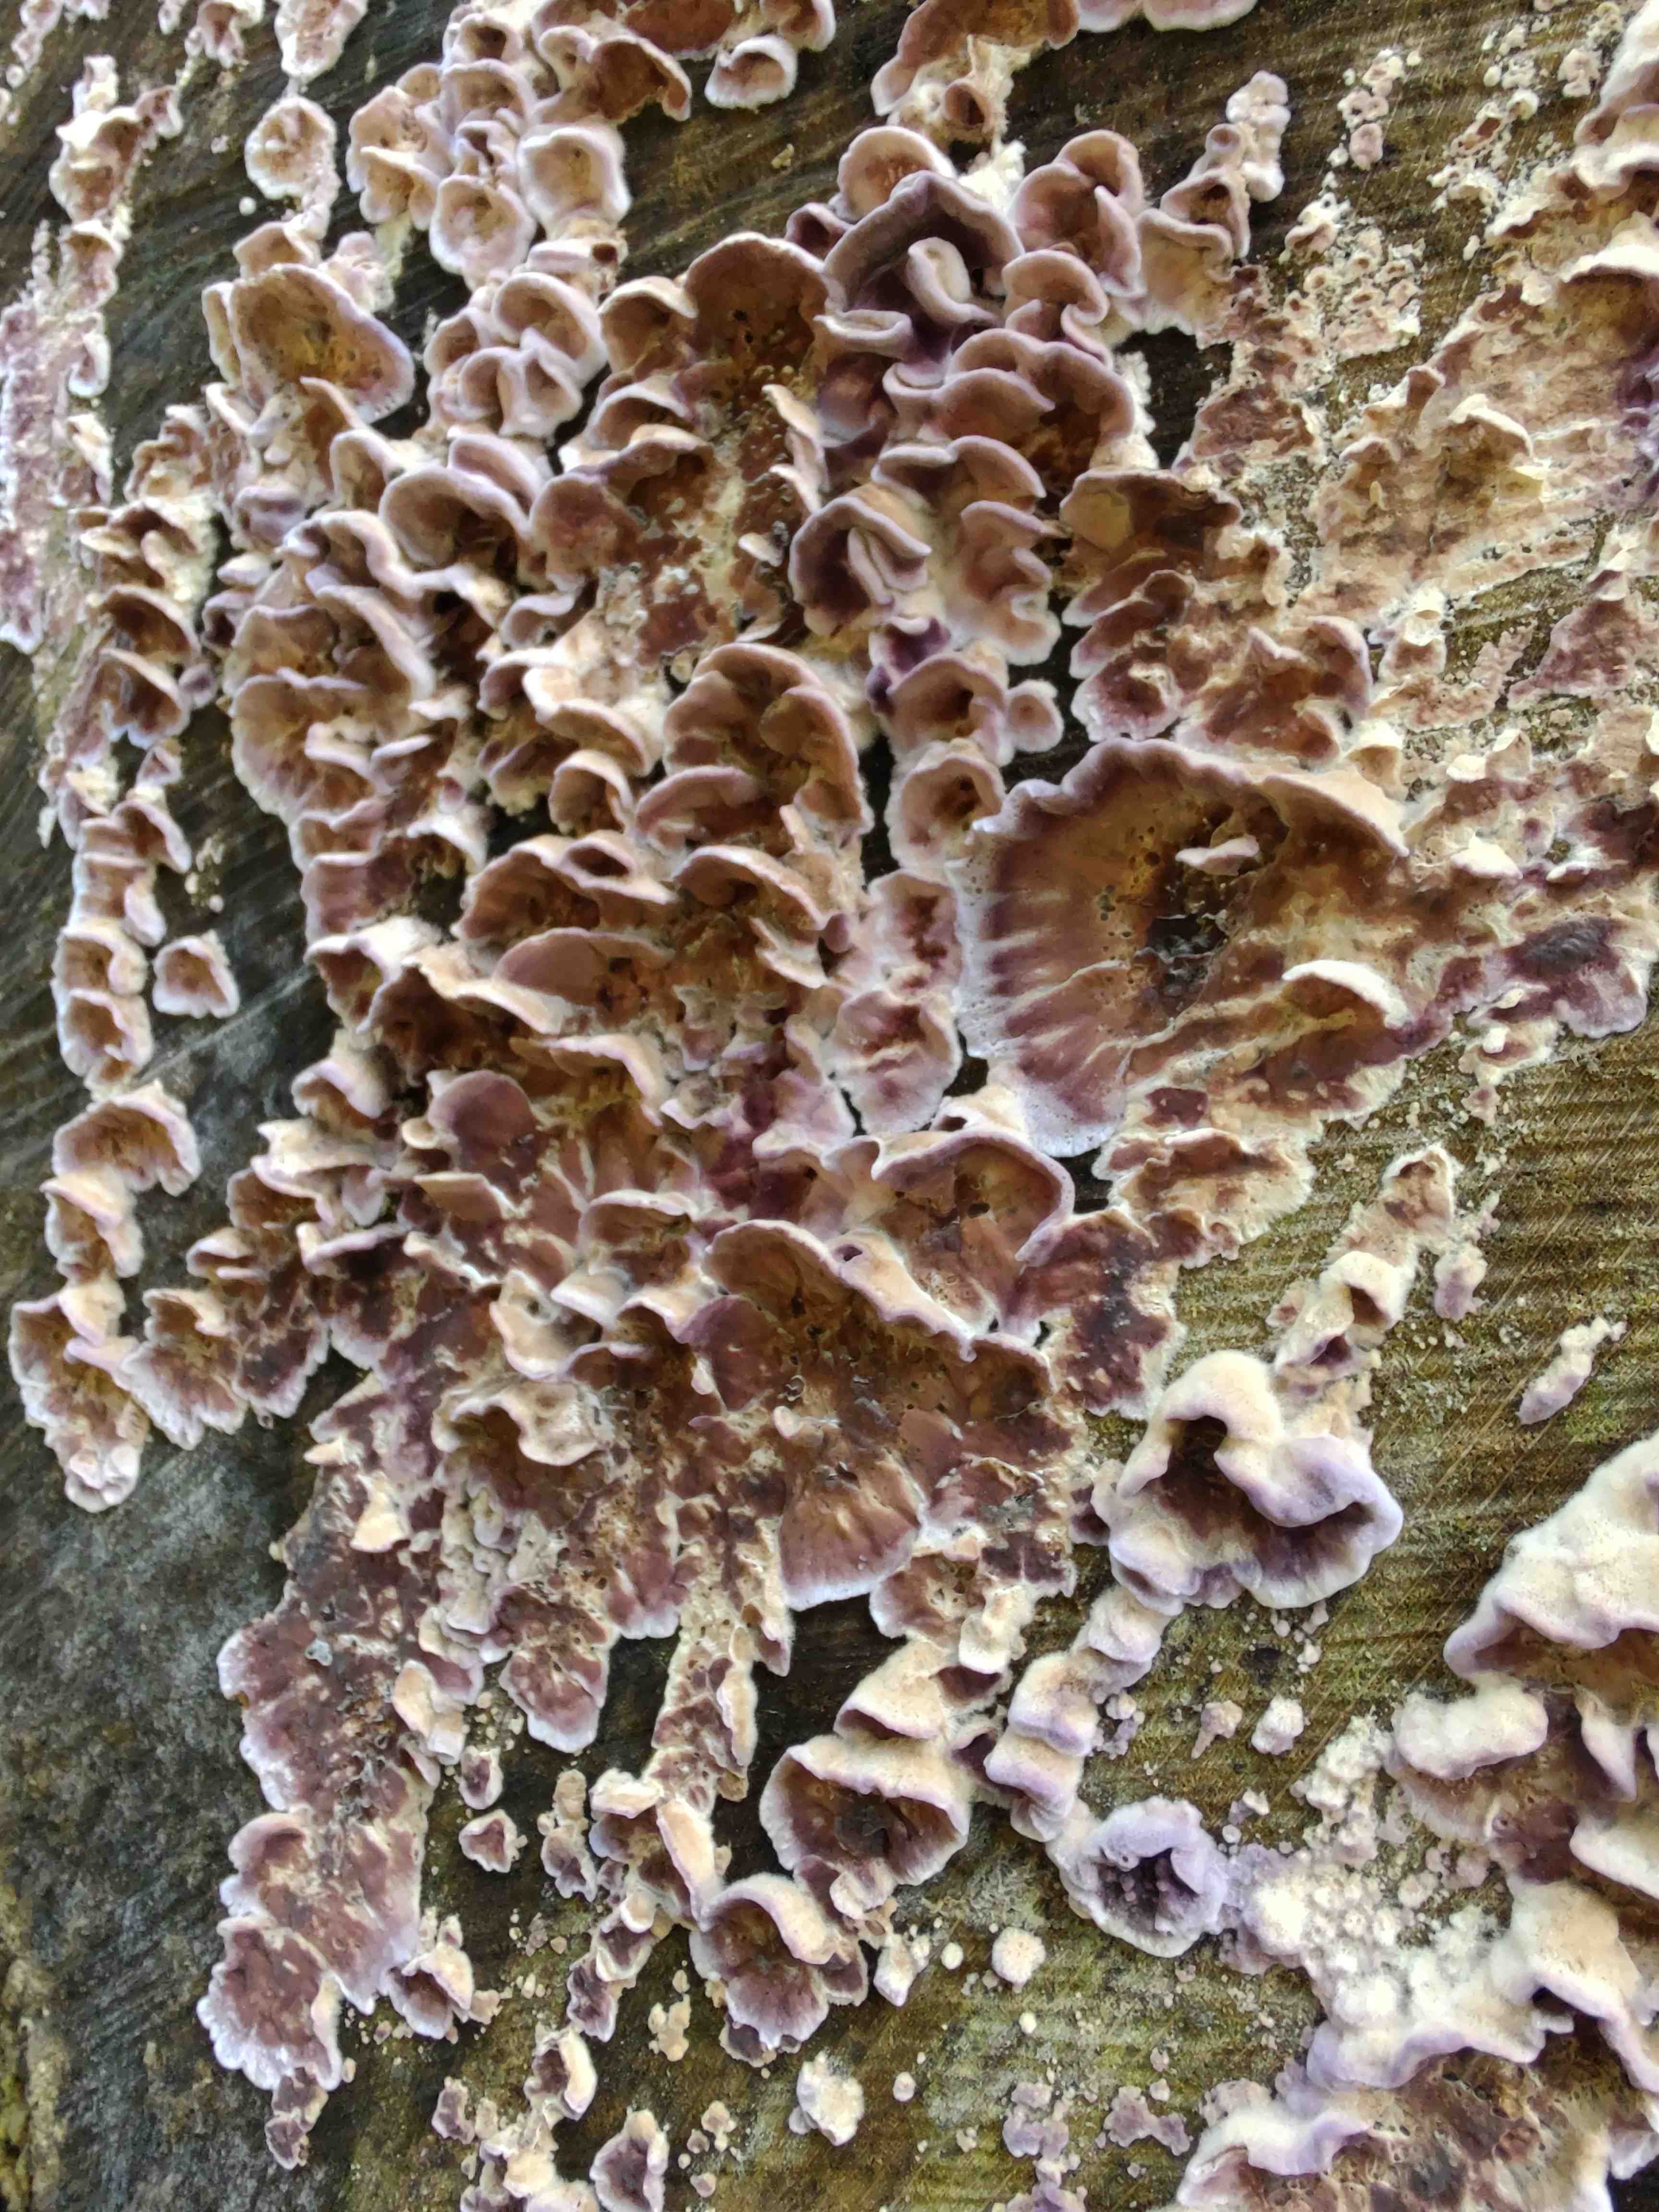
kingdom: Fungi
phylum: Basidiomycota
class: Agaricomycetes
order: Agaricales
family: Cyphellaceae
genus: Chondrostereum
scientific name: Chondrostereum purpureum
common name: purpurlædersvamp
